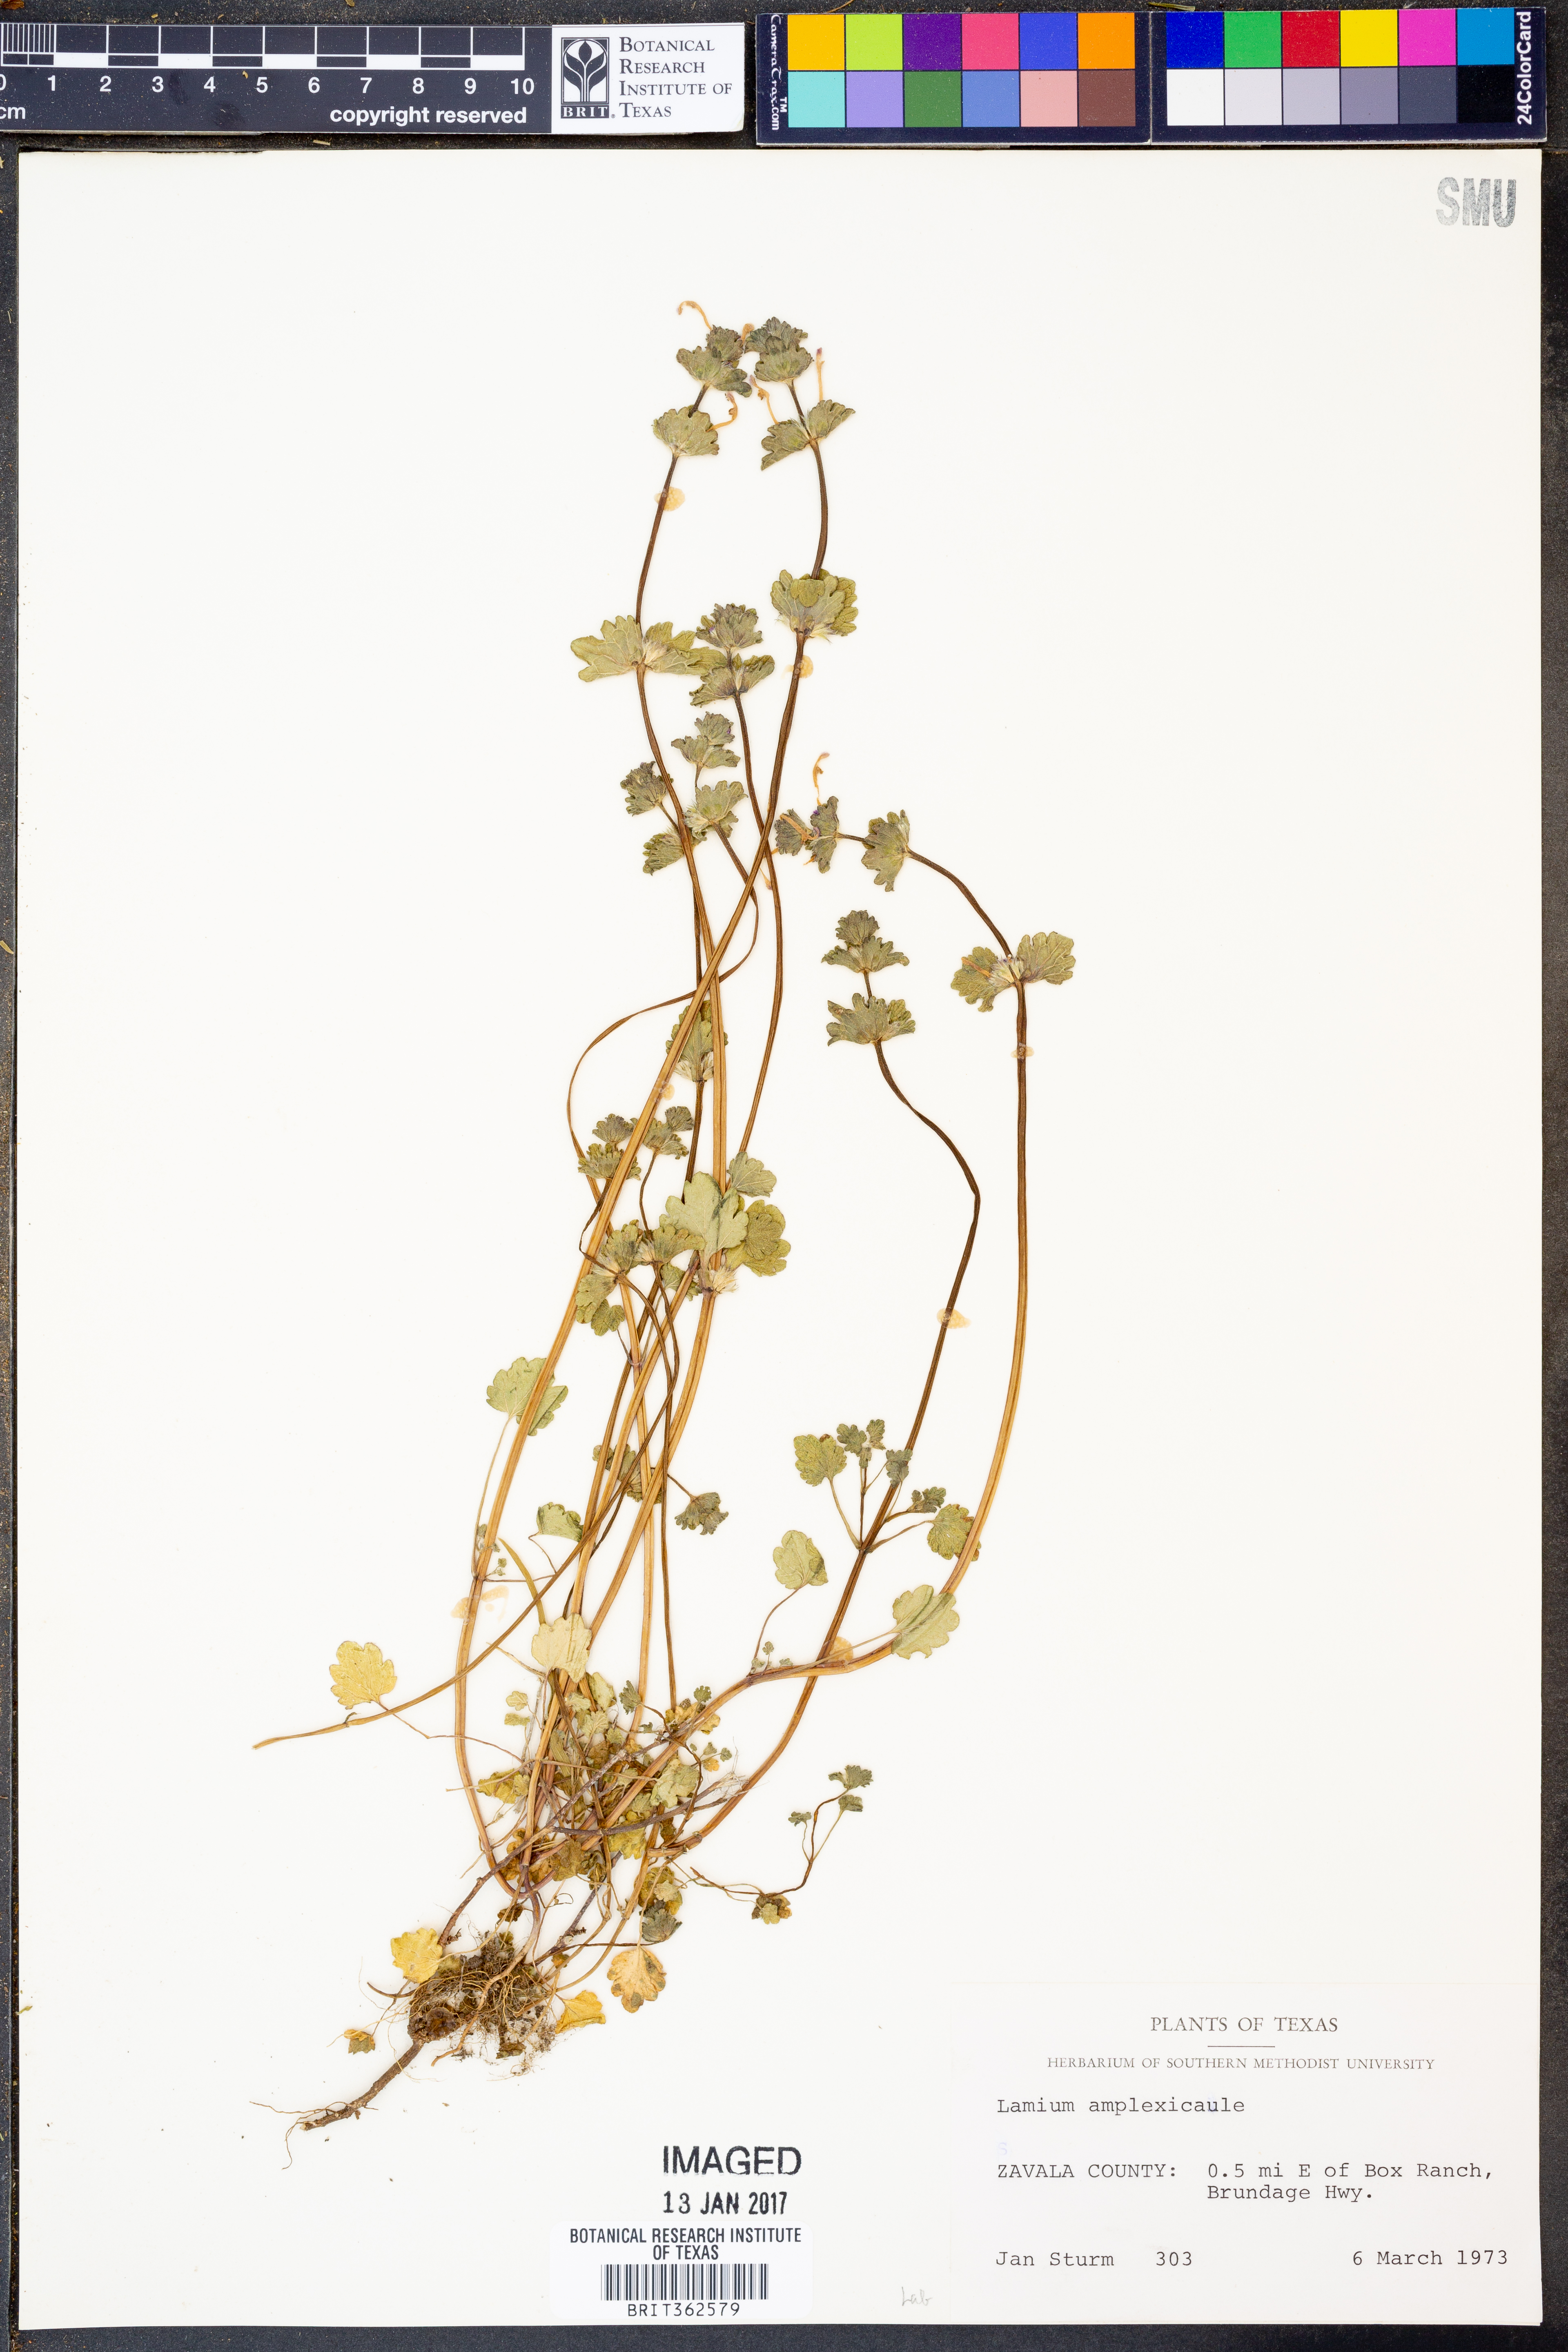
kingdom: Plantae
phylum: Tracheophyta
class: Magnoliopsida
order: Lamiales
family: Lamiaceae
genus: Lamium
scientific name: Lamium amplexicaule
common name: Henbit dead-nettle
